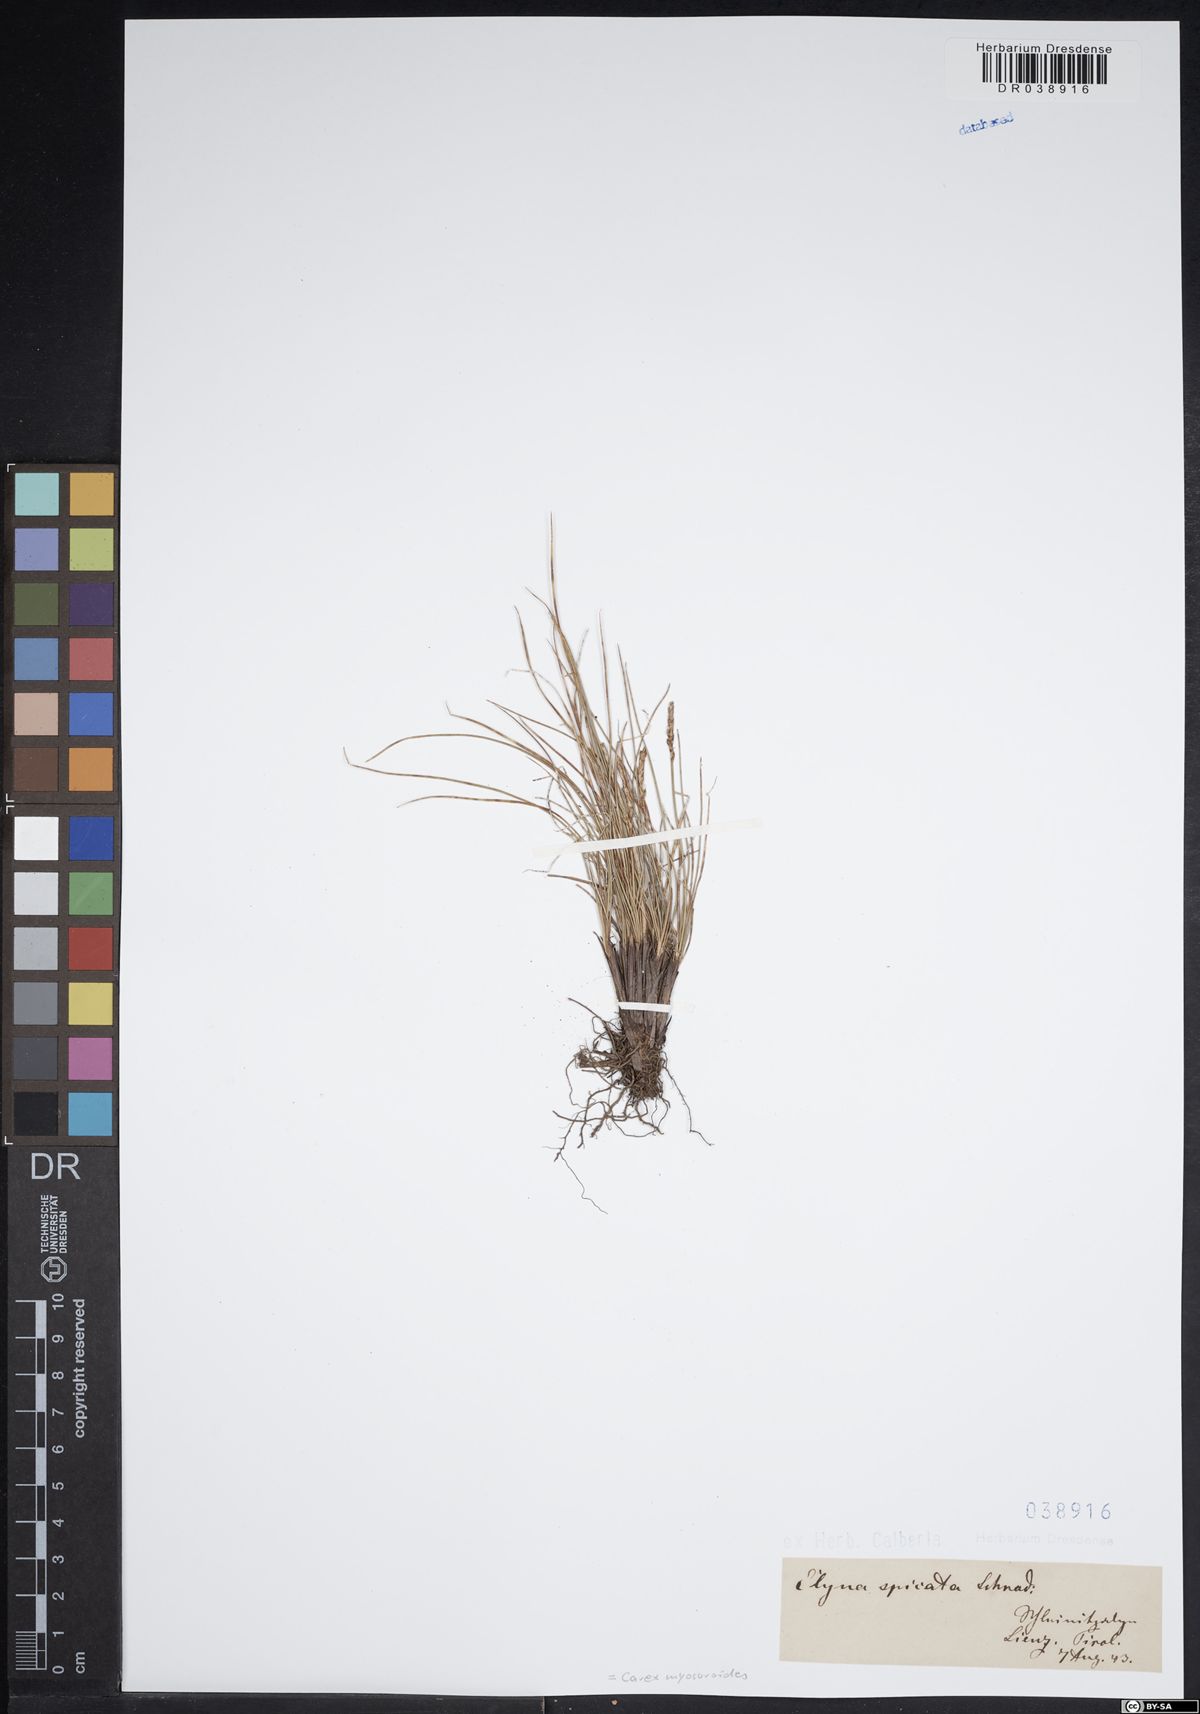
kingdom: Plantae
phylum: Tracheophyta
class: Liliopsida
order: Poales
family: Cyperaceae
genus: Carex
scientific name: Carex myosuroides
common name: Bellard's bog sedge
